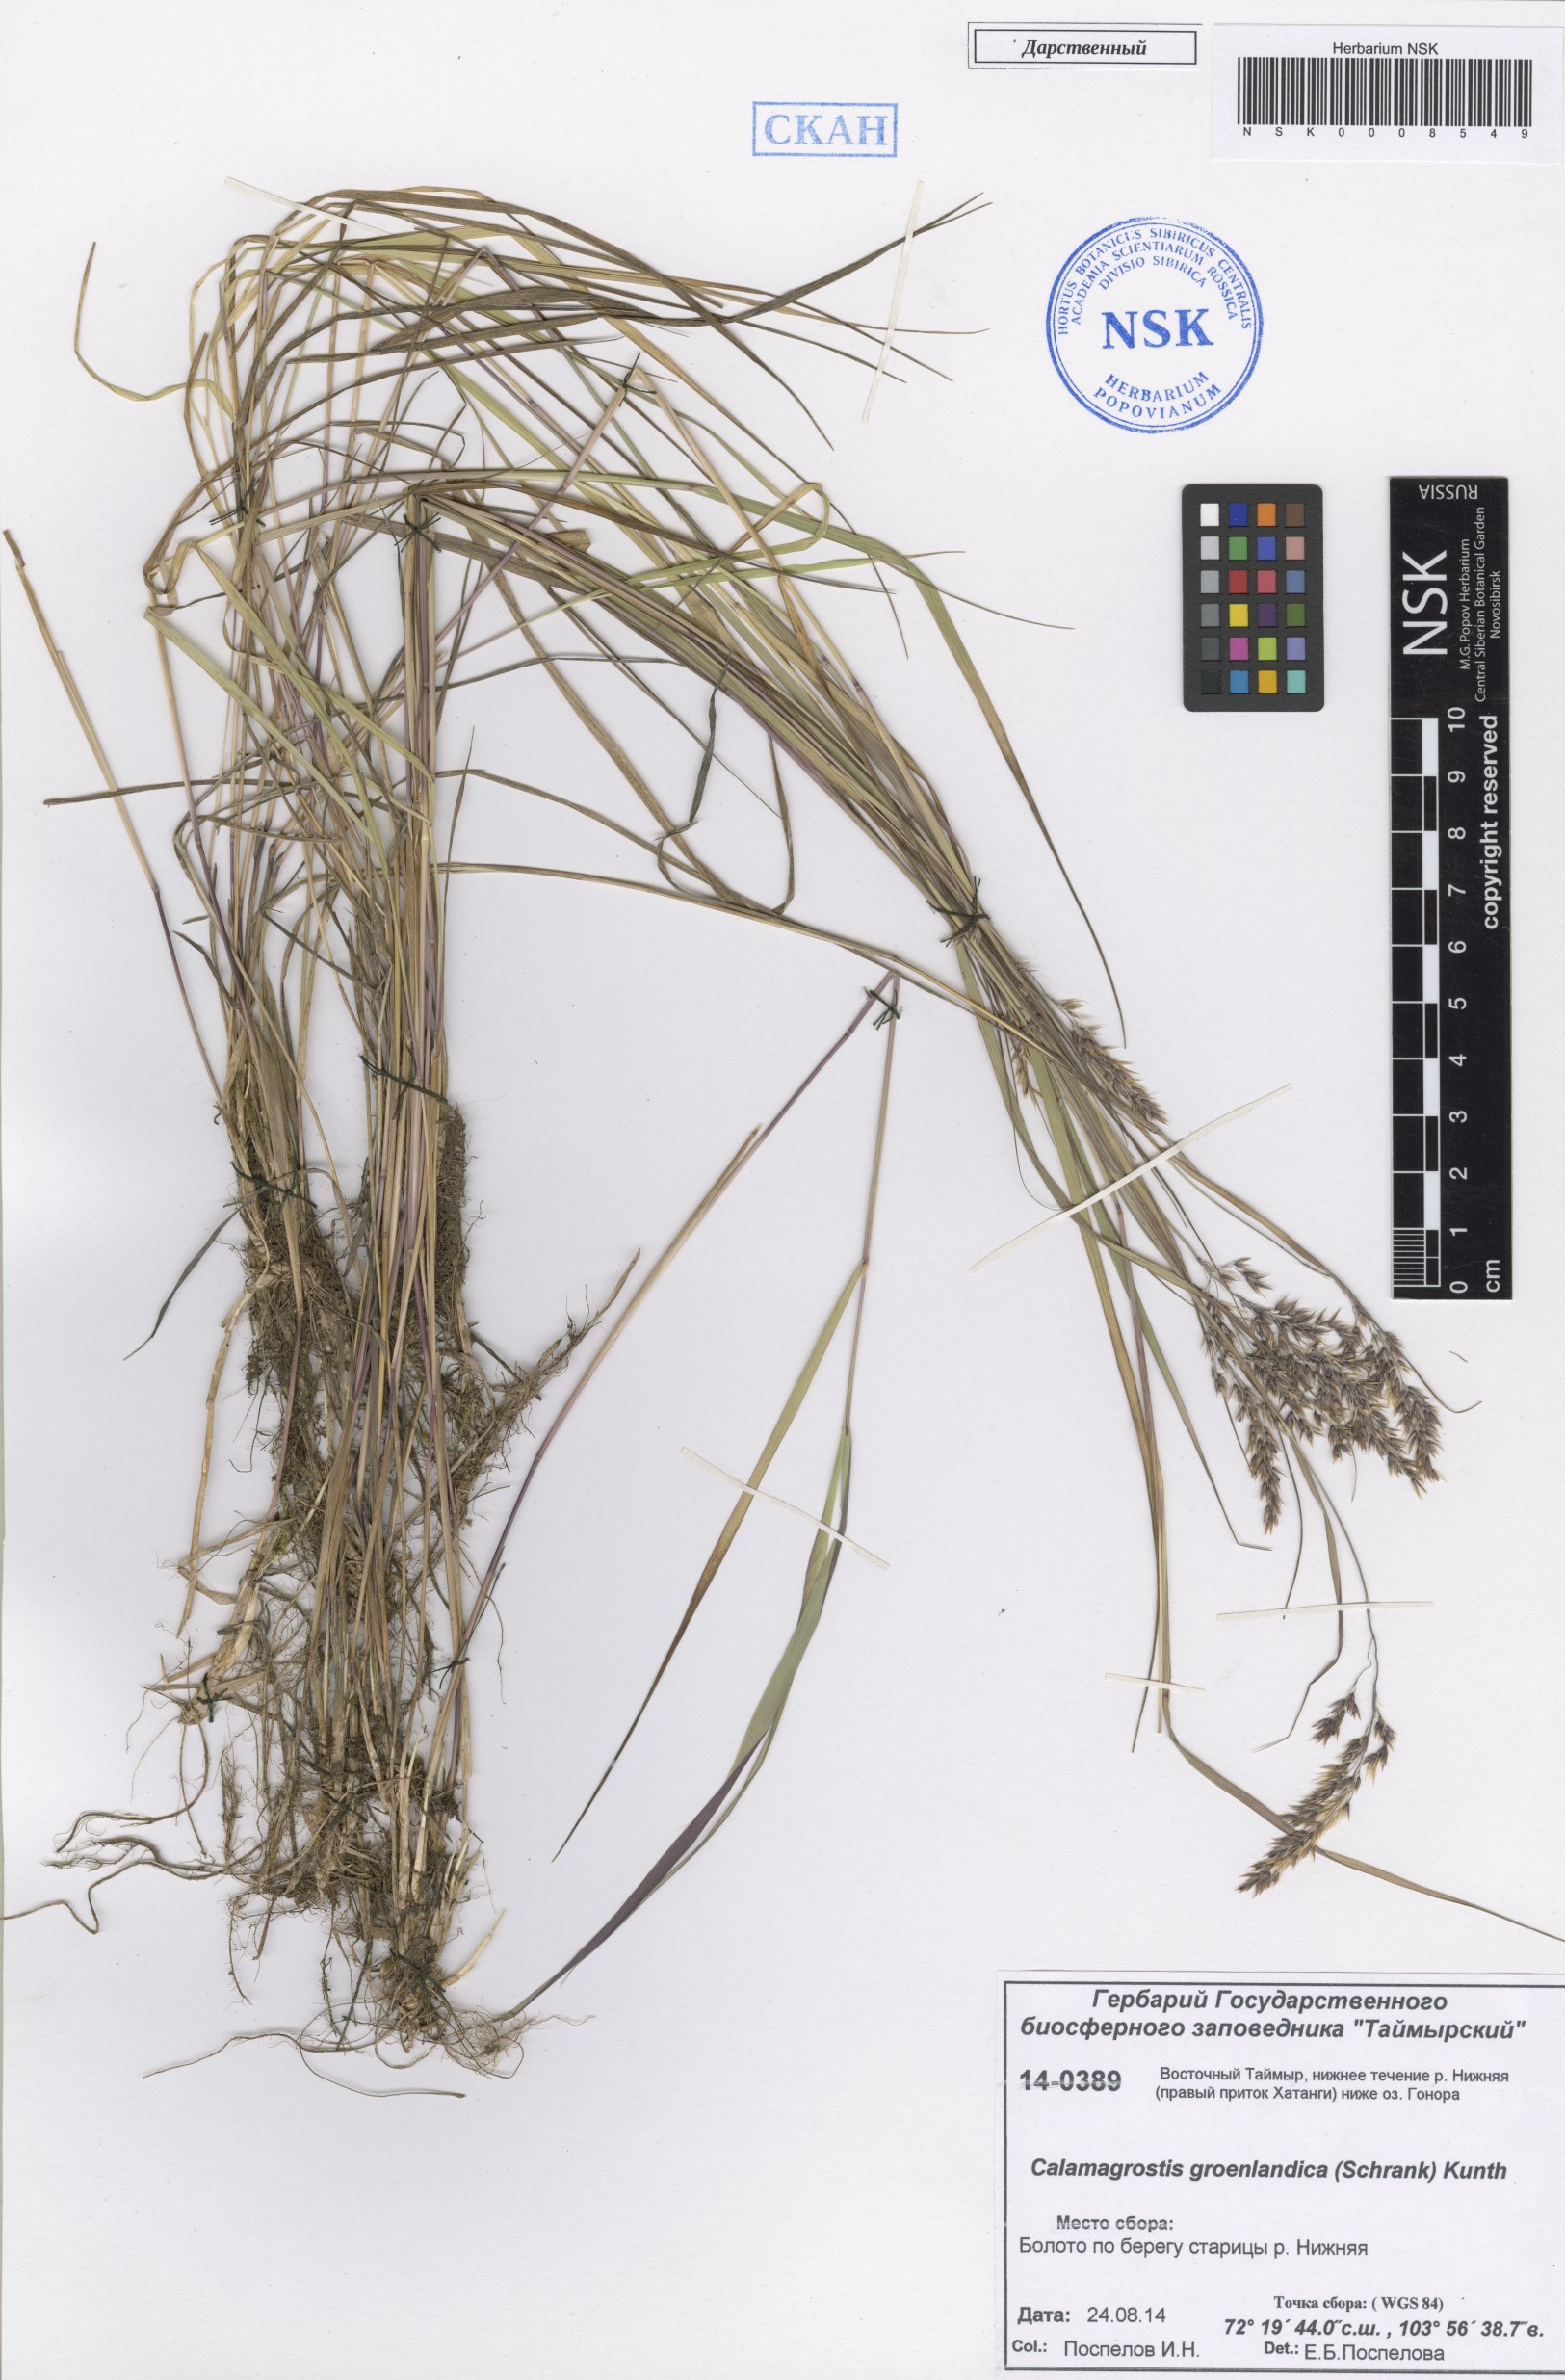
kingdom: Plantae
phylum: Tracheophyta
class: Liliopsida
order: Poales
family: Poaceae
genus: Calamagrostis
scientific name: Calamagrostis stricta
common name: Narrow small-reed
